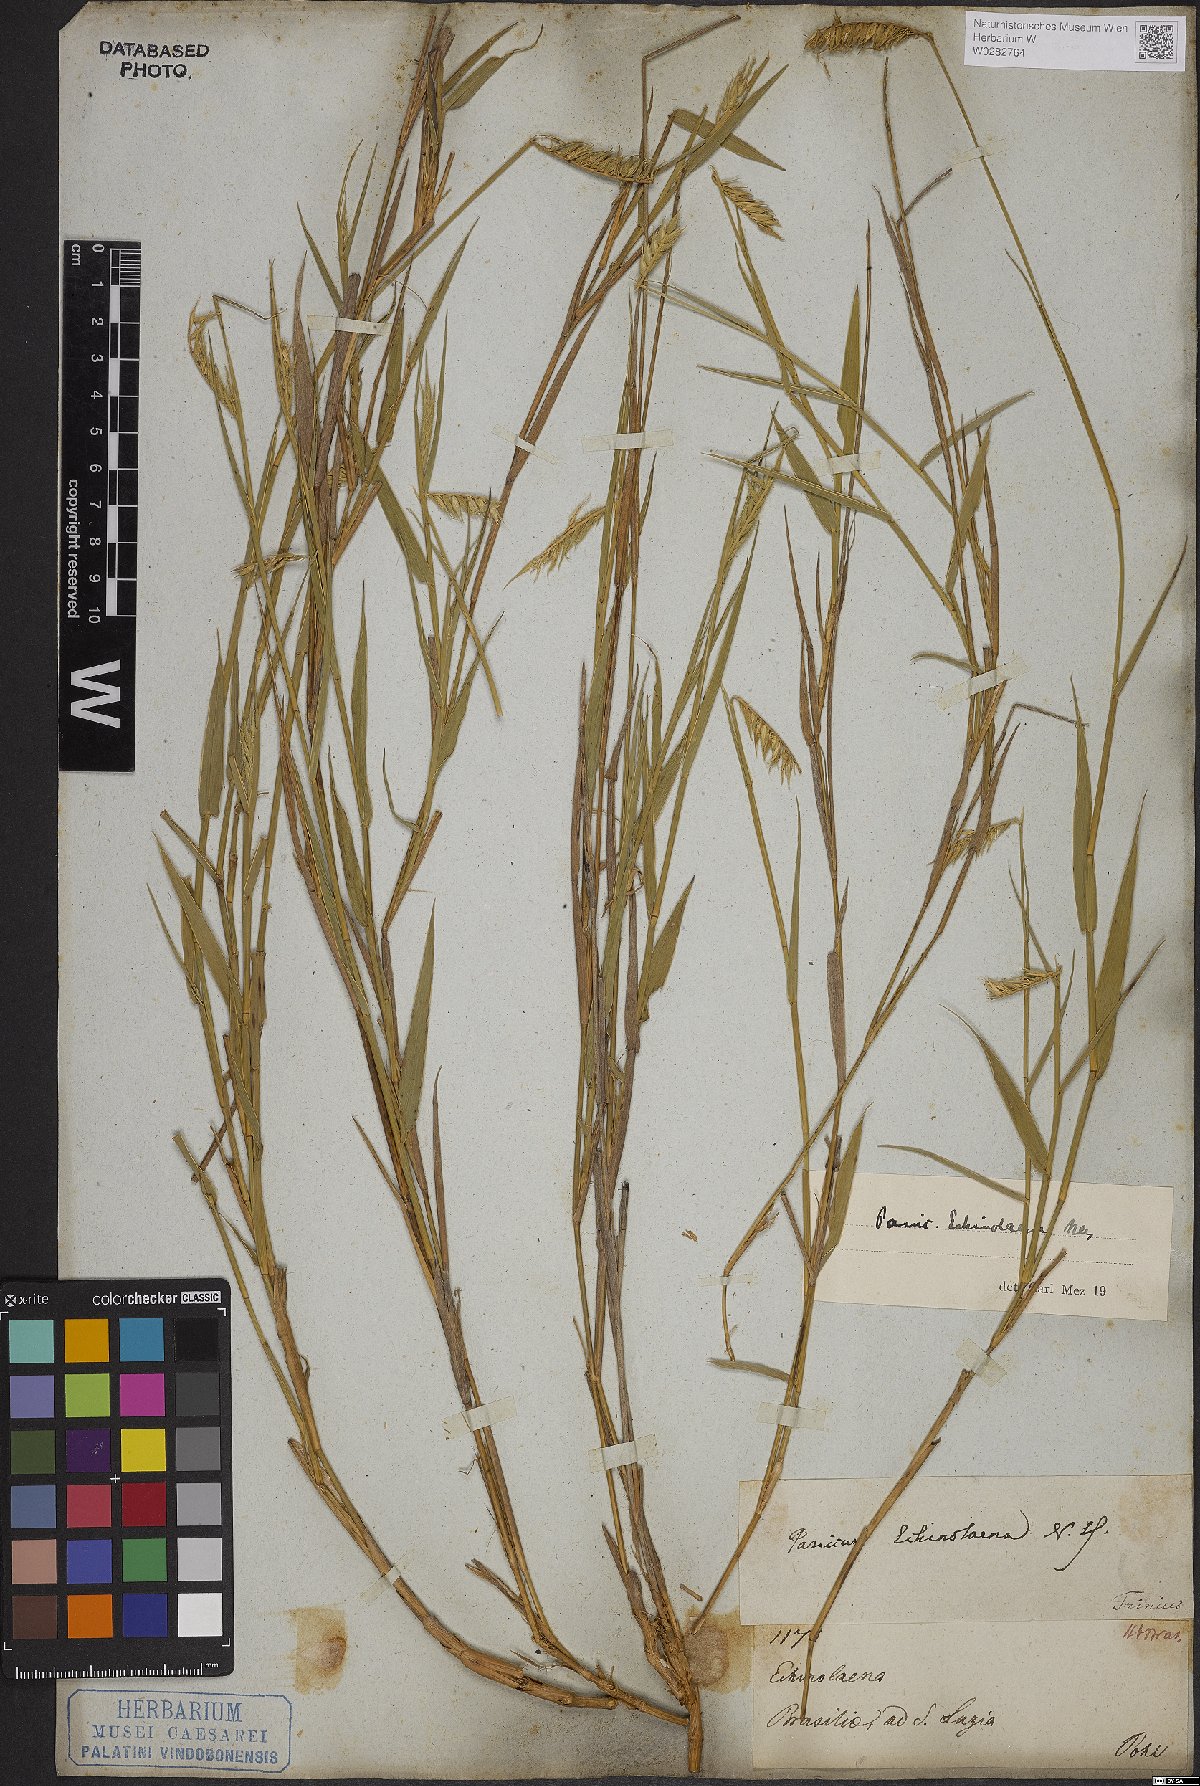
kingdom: Plantae
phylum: Tracheophyta
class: Liliopsida
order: Poales
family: Poaceae
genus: Echinolaena
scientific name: Echinolaena inflexa
